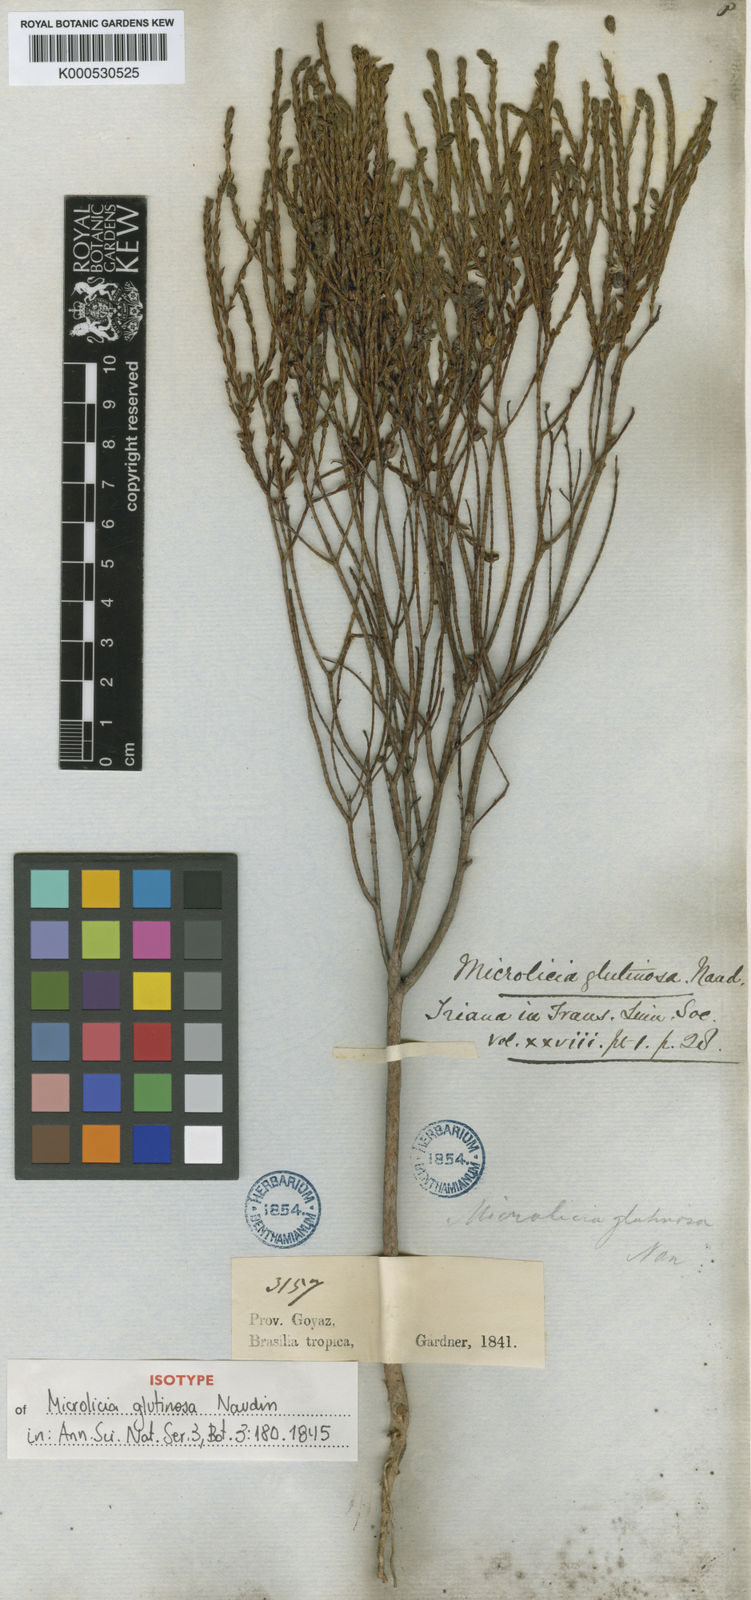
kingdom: Plantae
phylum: Tracheophyta
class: Magnoliopsida
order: Myrtales
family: Melastomataceae
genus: Microlicia
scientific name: Microlicia glutinosa
